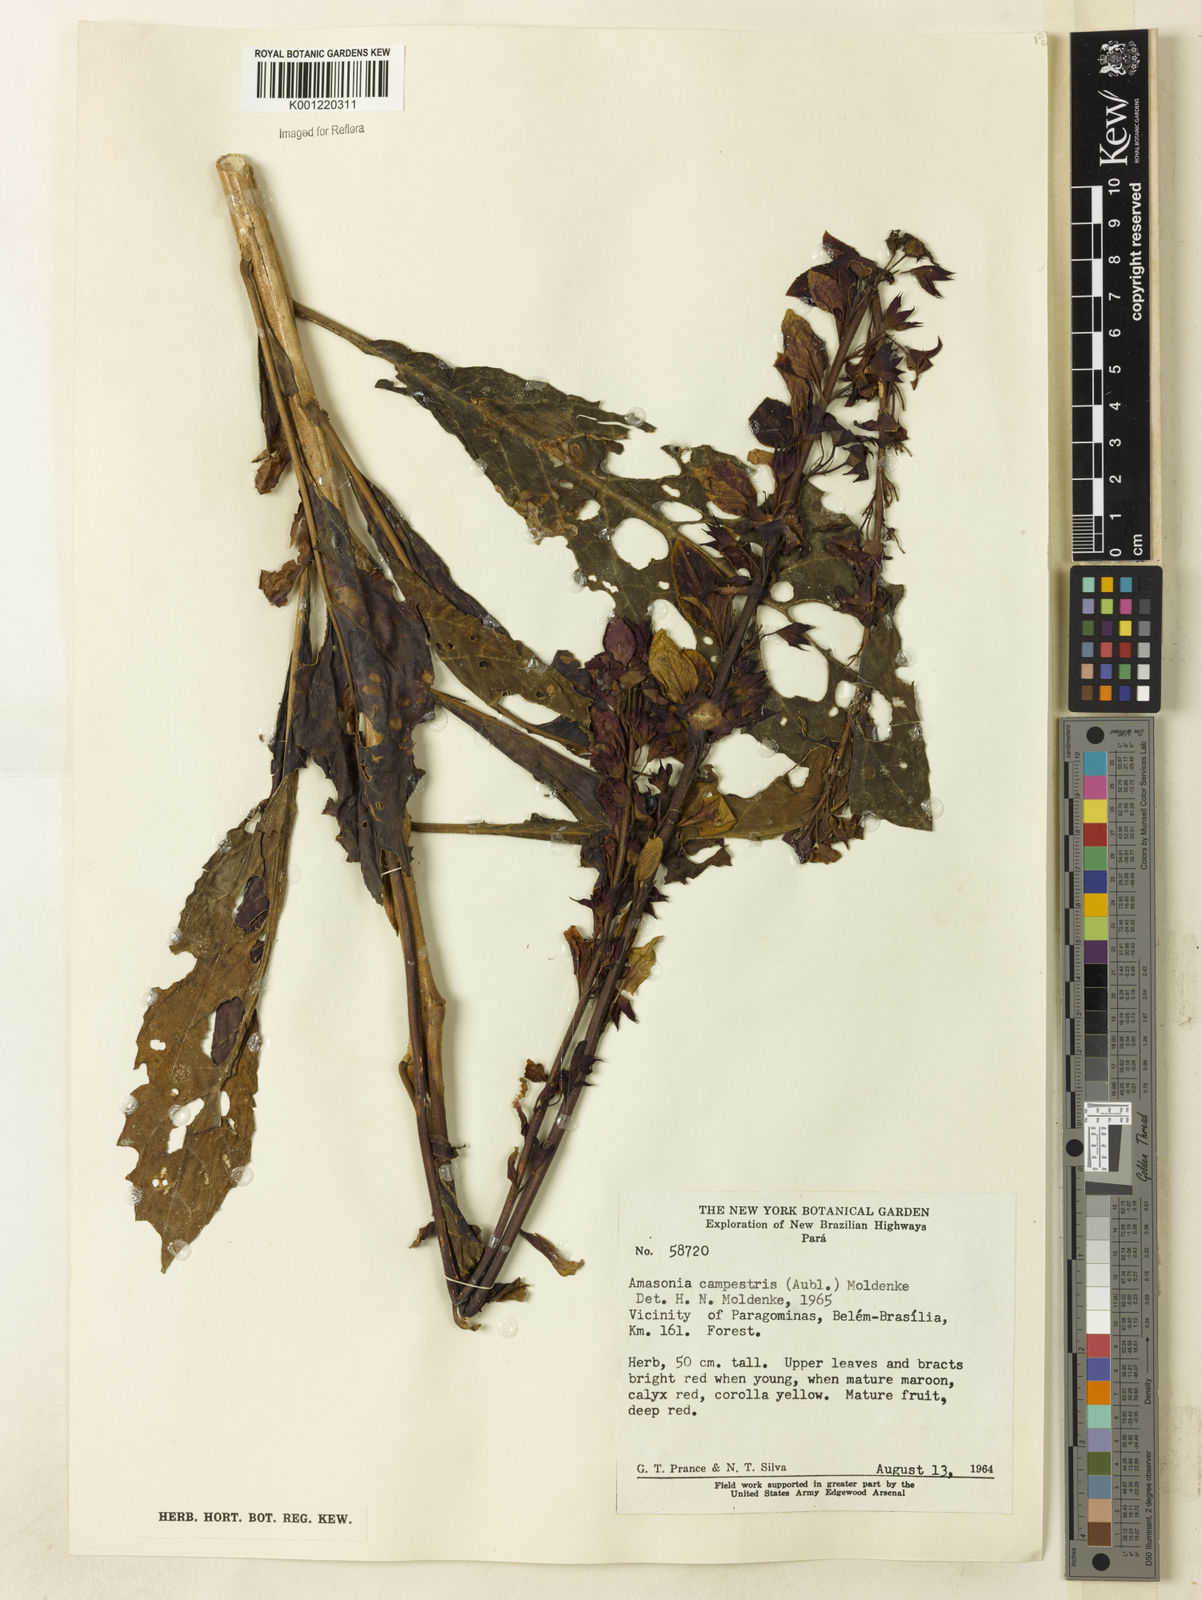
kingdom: Plantae
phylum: Tracheophyta
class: Magnoliopsida
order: Lamiales
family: Lamiaceae
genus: Amasonia
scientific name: Amasonia campestris
